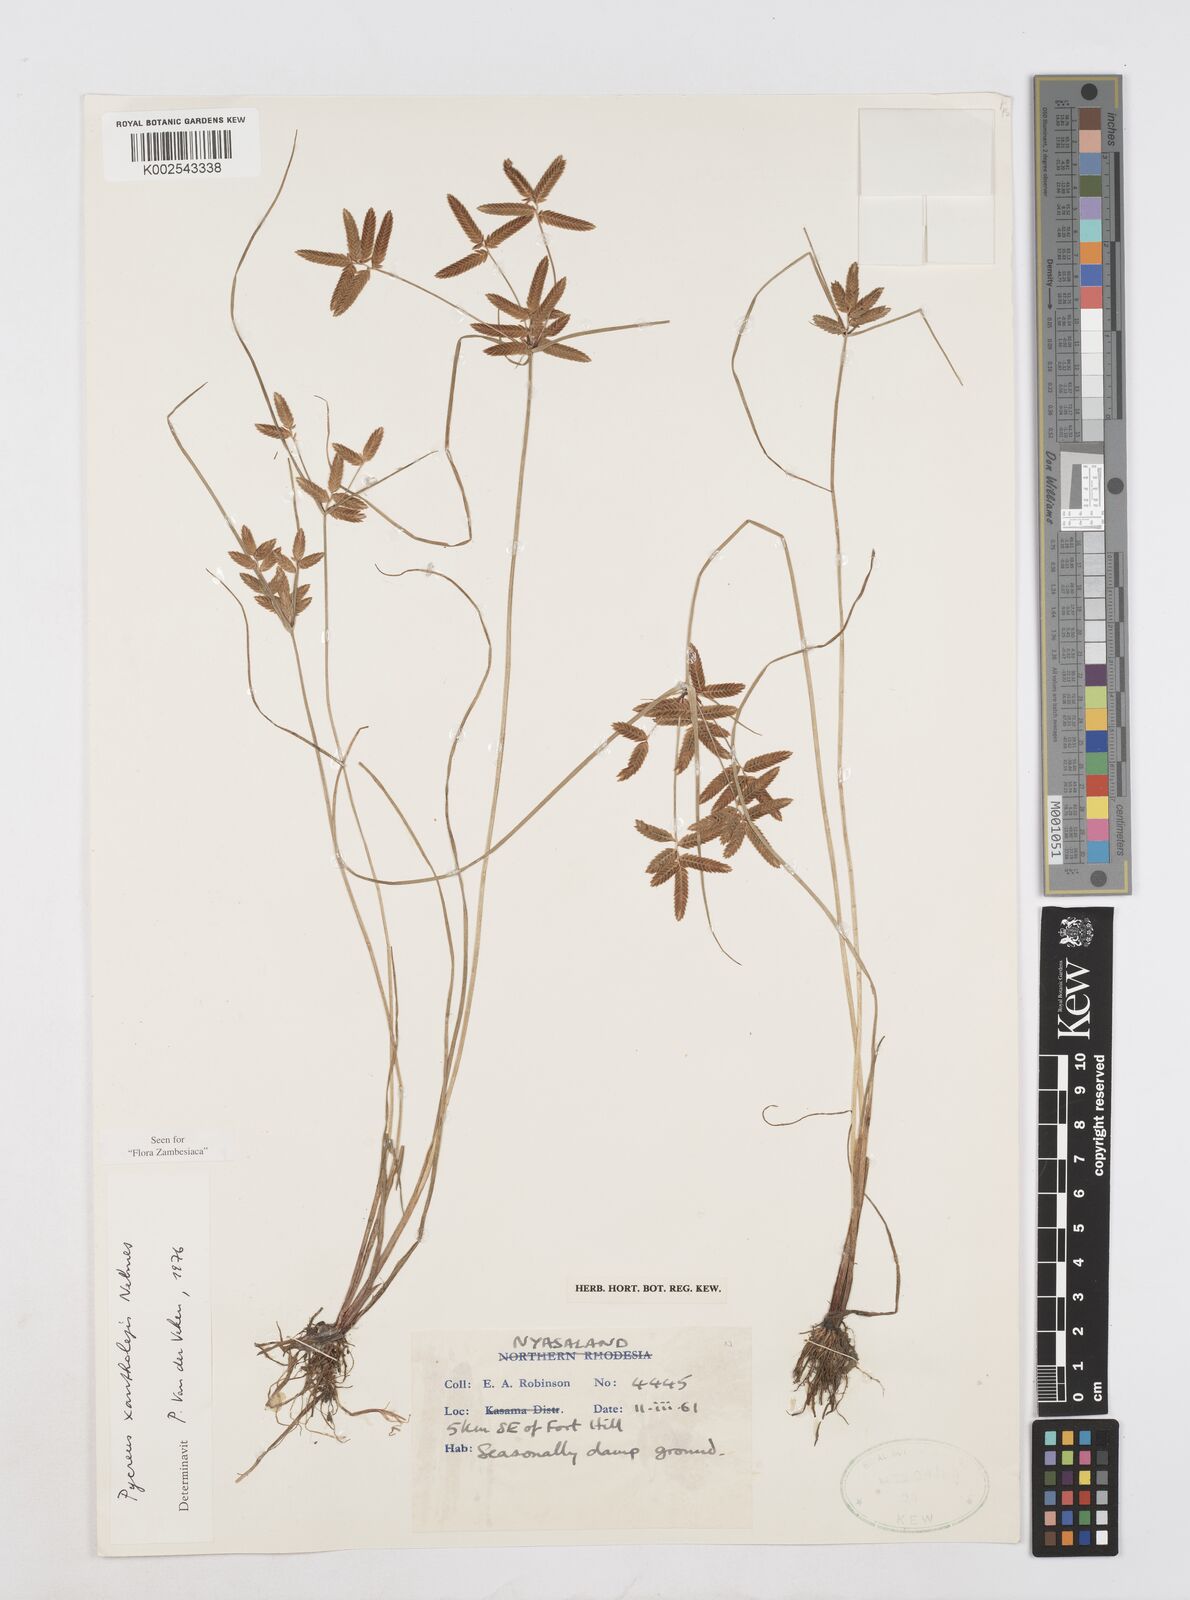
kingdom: Plantae
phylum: Tracheophyta
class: Liliopsida
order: Poales
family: Cyperaceae
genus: Cyperus
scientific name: Cyperus xantholepis
